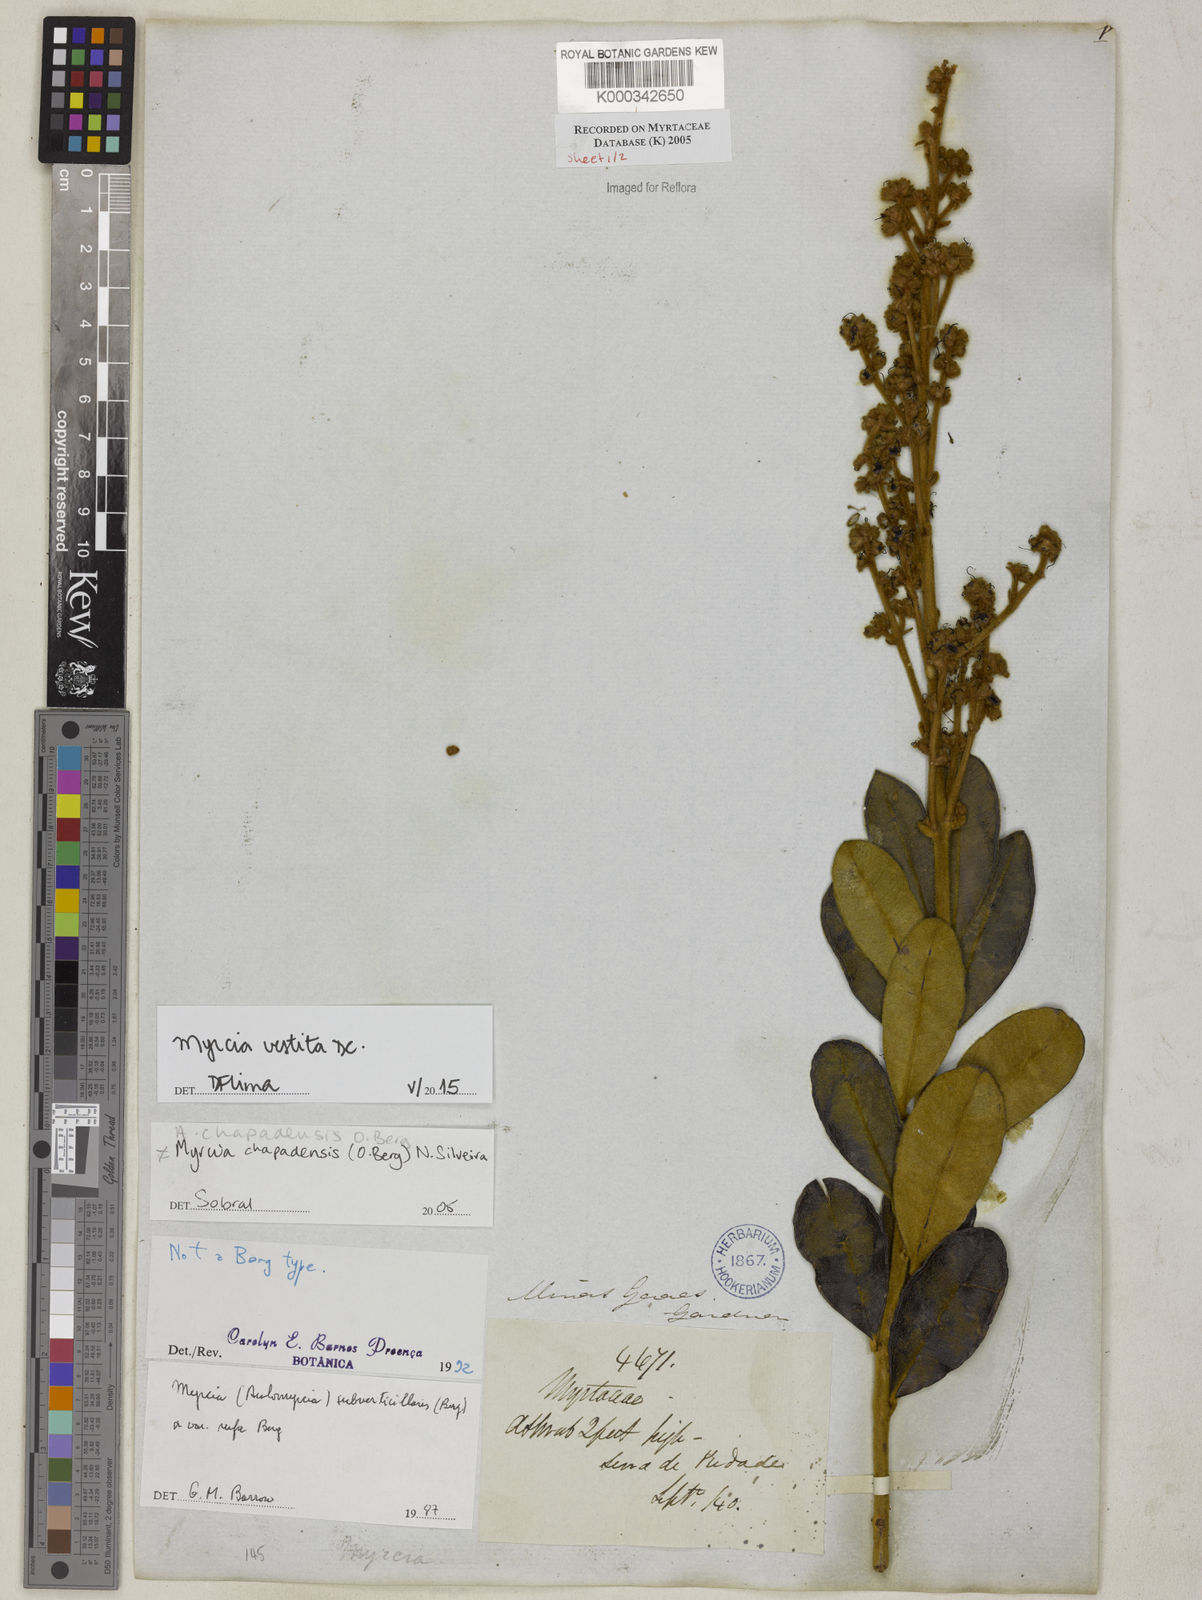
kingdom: Plantae
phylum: Tracheophyta
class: Magnoliopsida
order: Myrtales
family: Myrtaceae
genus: Myrcia
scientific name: Myrcia chapadensis
